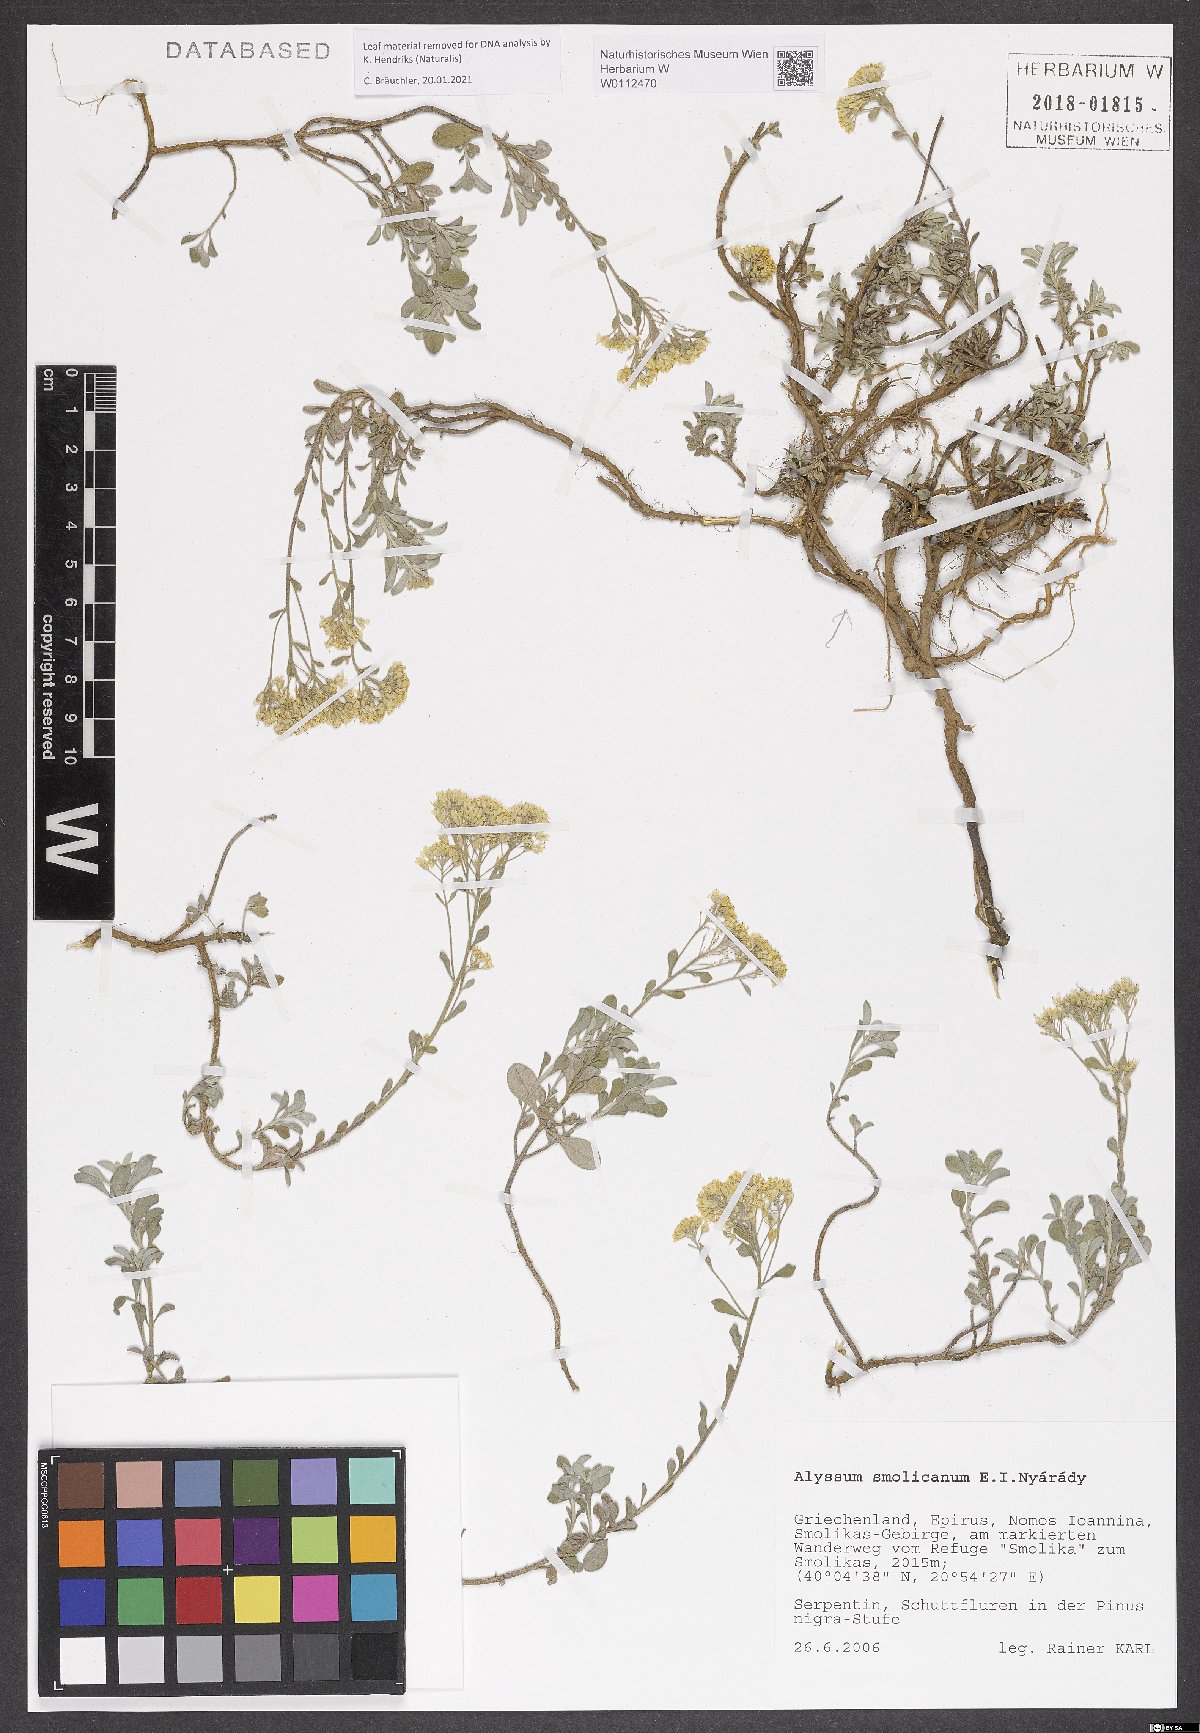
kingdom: Plantae
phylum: Tracheophyta
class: Magnoliopsida
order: Brassicales
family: Brassicaceae
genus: Odontarrhena
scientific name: Odontarrhena smolikana
